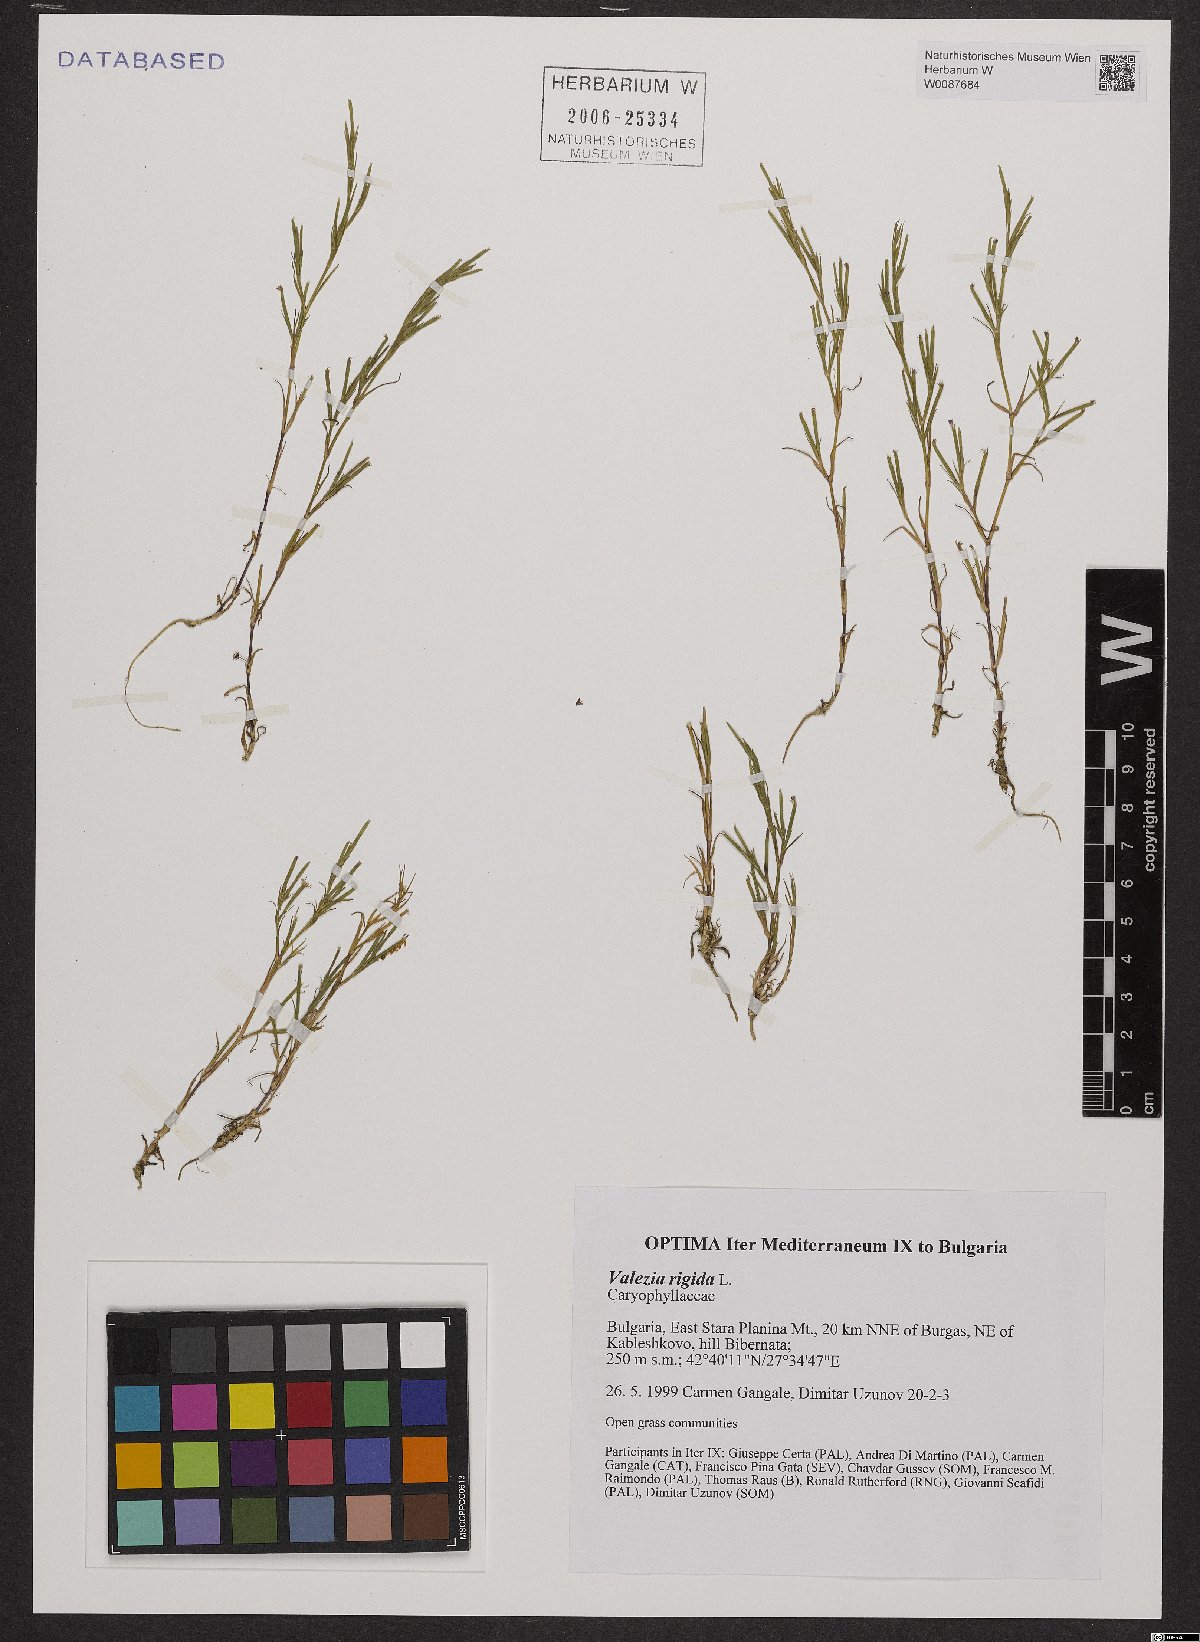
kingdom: Plantae
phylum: Tracheophyta
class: Magnoliopsida
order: Caryophyllales
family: Caryophyllaceae
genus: Dianthus
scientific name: Dianthus nudiflorus
